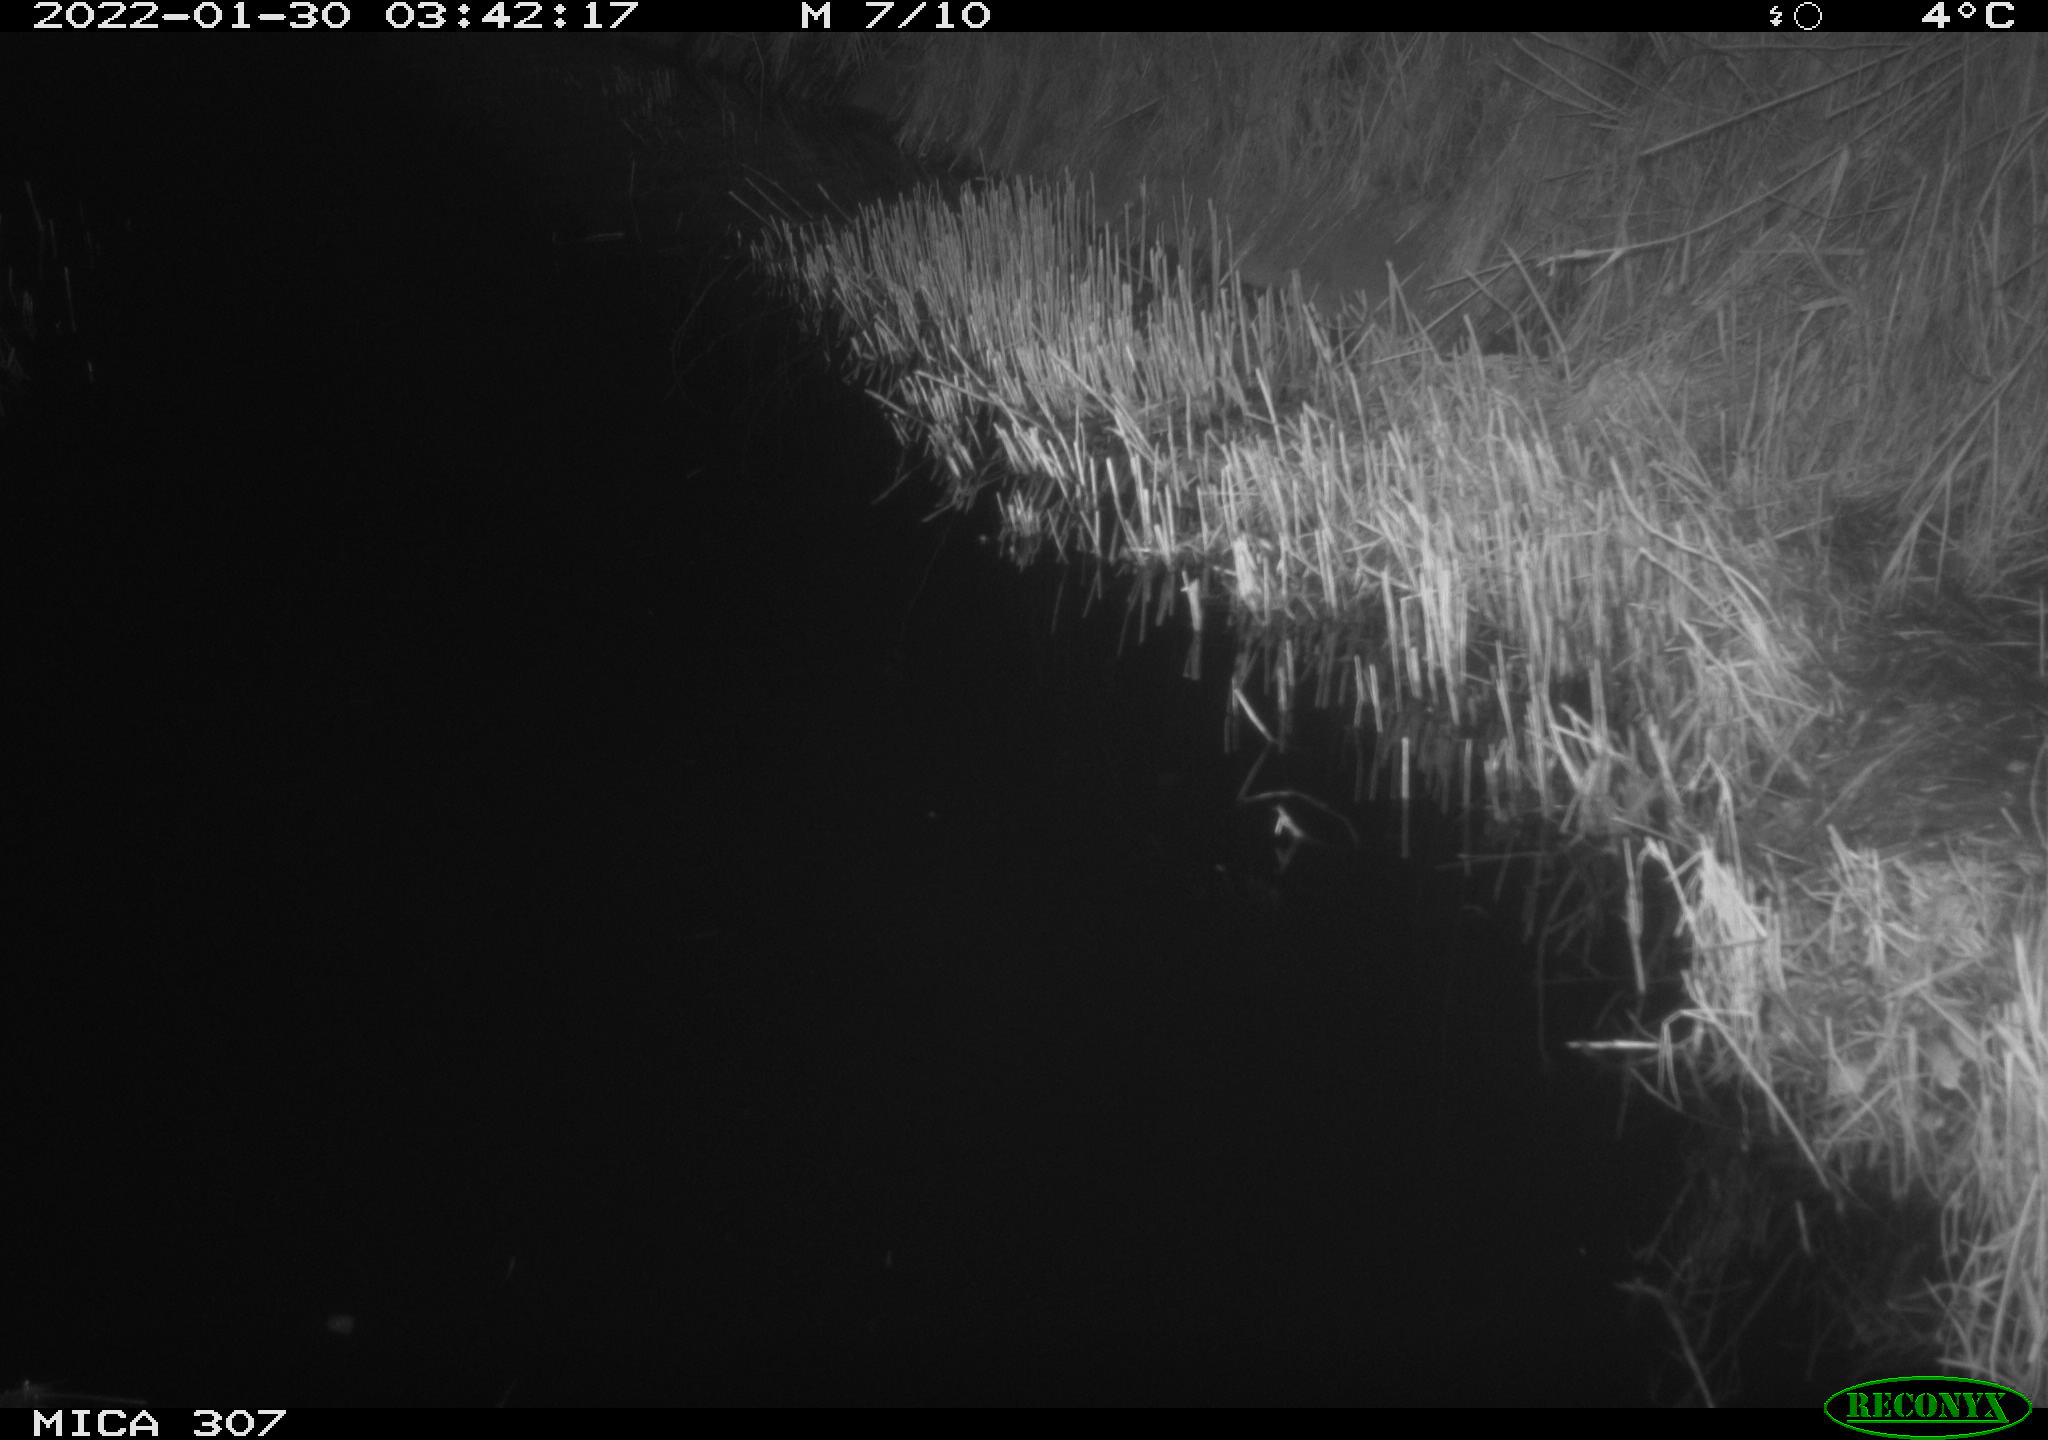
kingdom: Animalia
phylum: Chordata
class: Mammalia
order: Rodentia
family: Muridae
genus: Rattus
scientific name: Rattus norvegicus
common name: Brown rat
